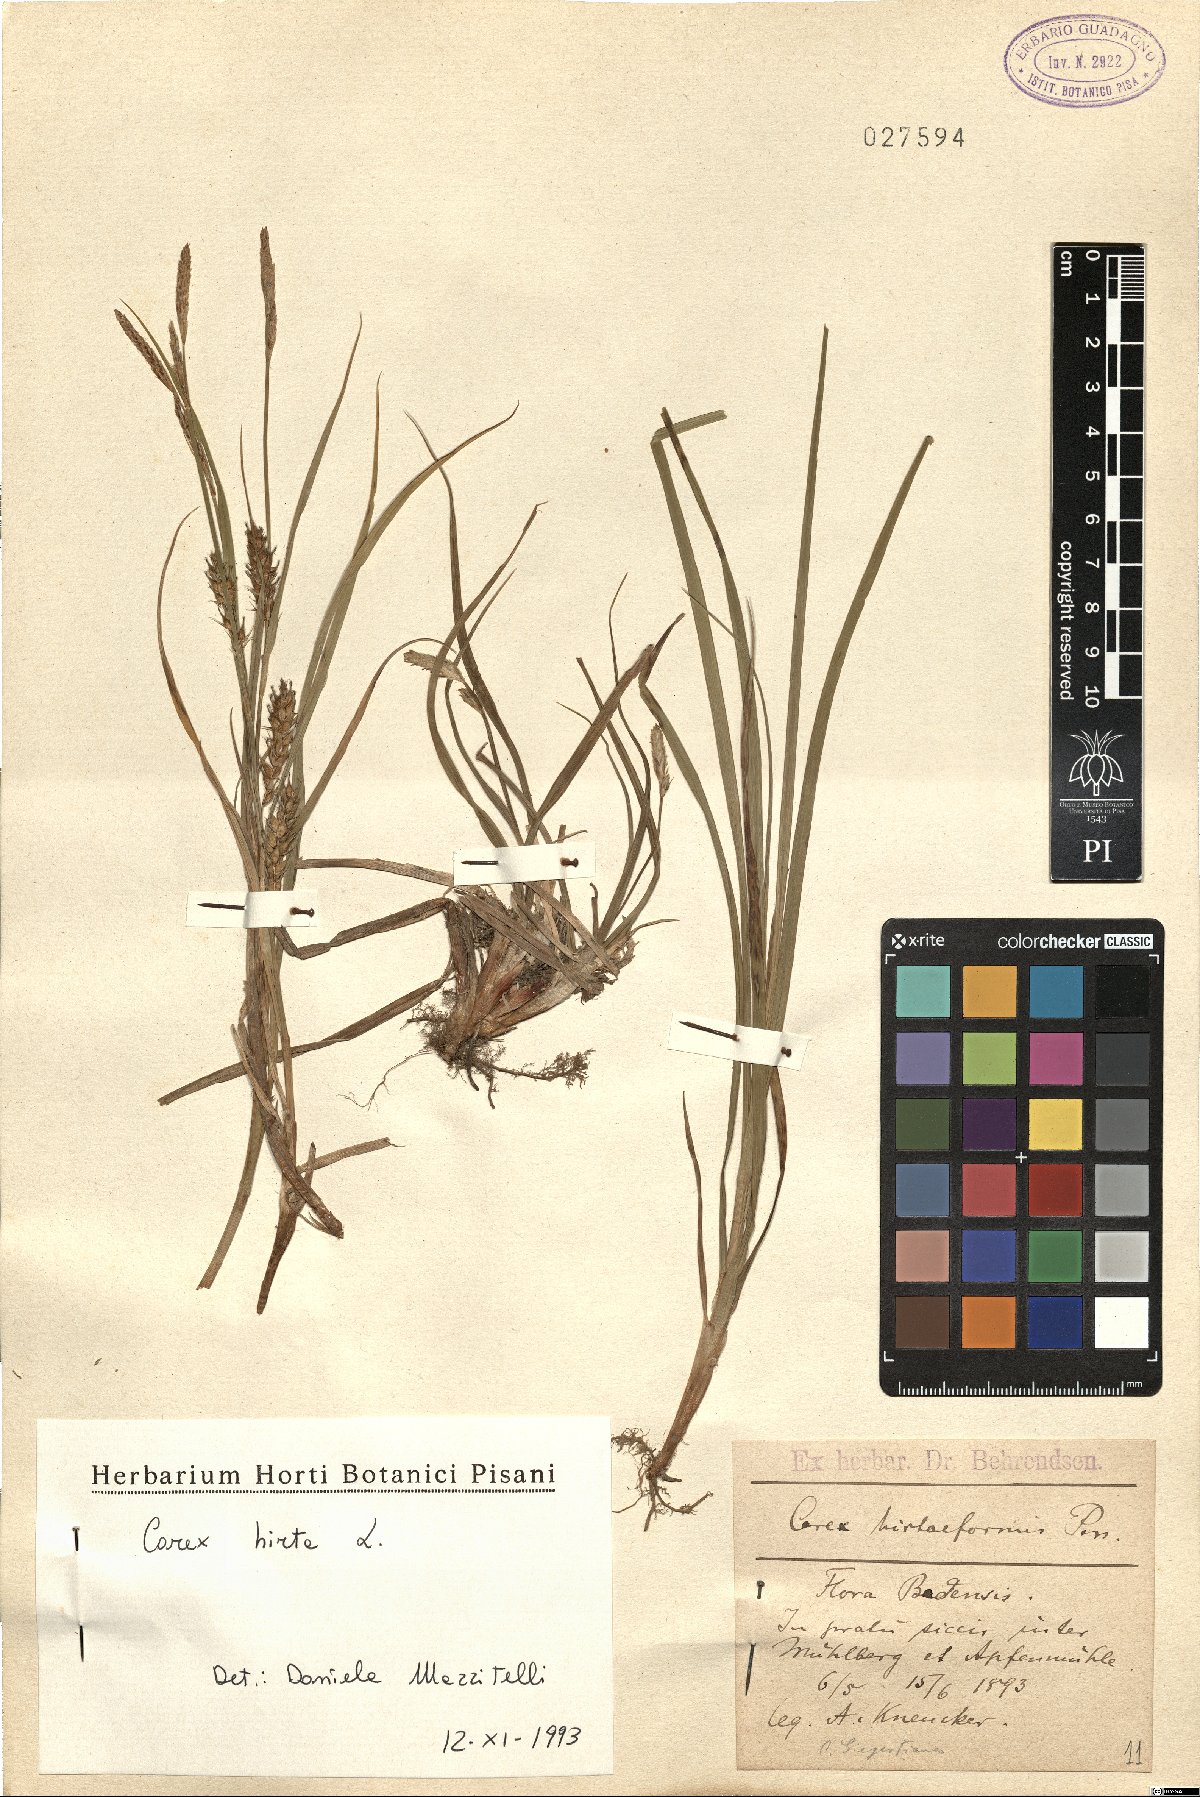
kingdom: Plantae
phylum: Tracheophyta
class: Liliopsida
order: Poales
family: Cyperaceae
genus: Carex
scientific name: Carex hirta
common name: Hairy sedge
